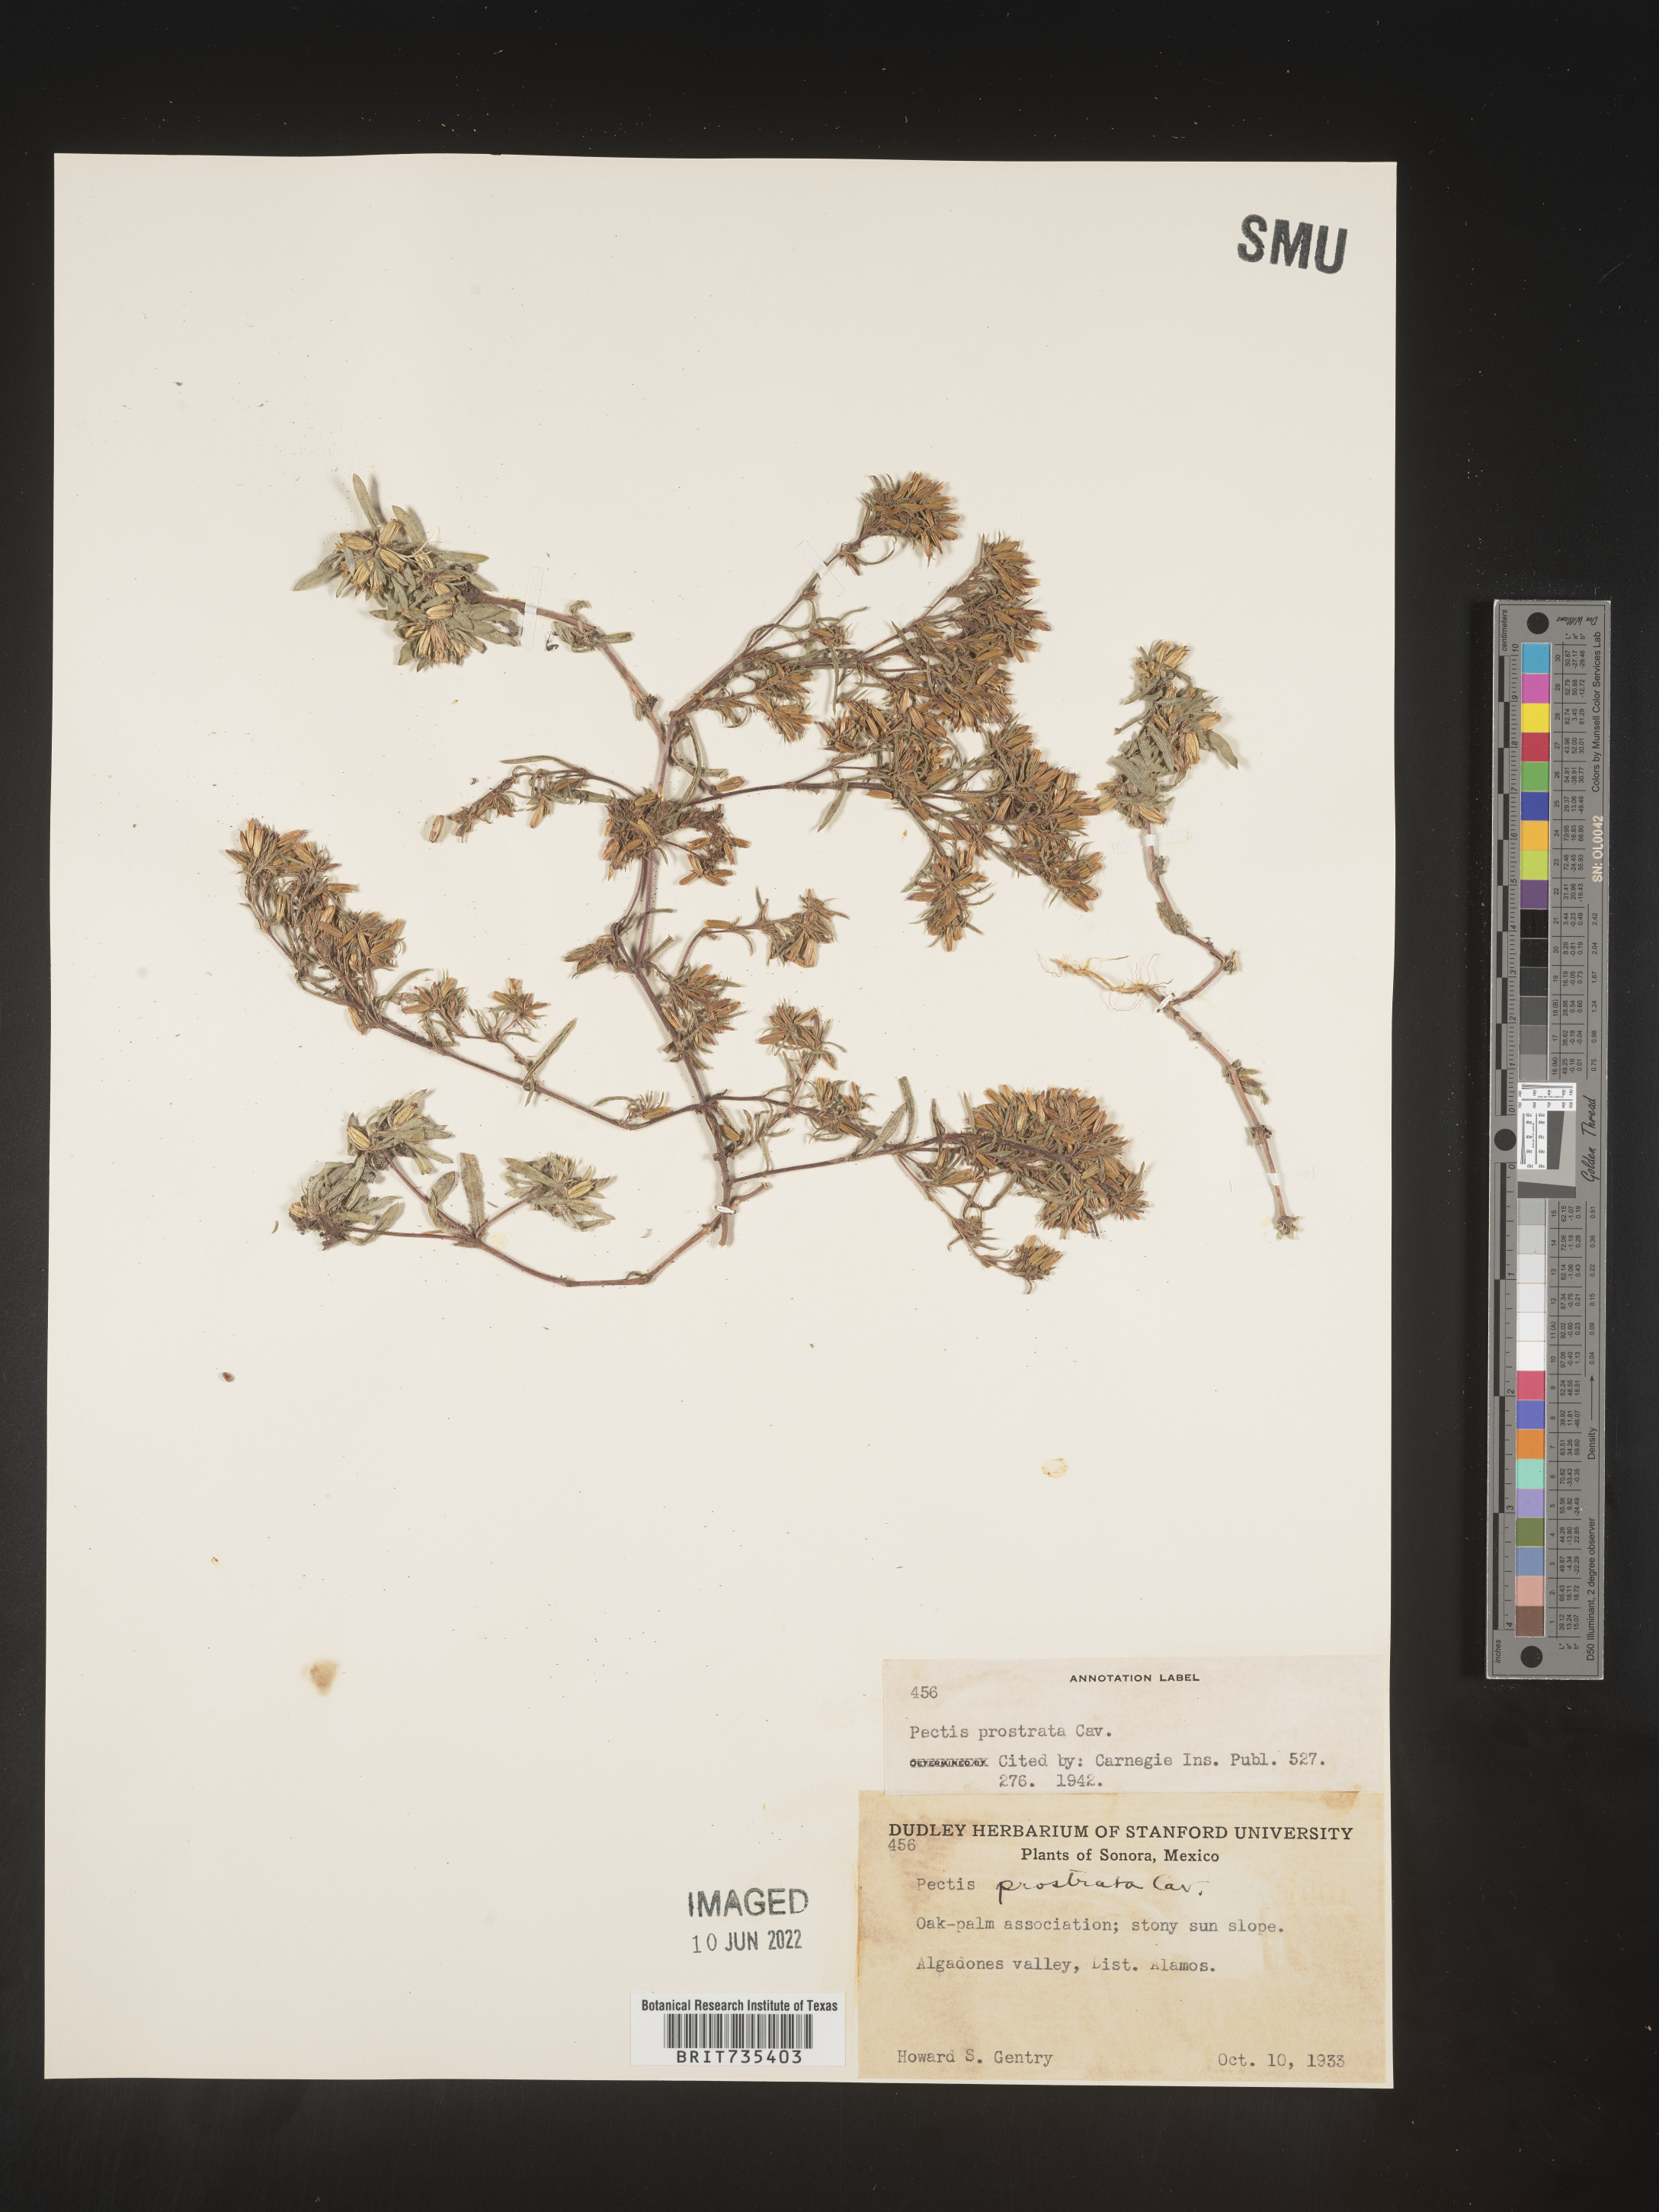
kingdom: Plantae
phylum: Tracheophyta
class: Magnoliopsida
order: Asterales
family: Asteraceae
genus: Pectis
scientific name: Pectis
